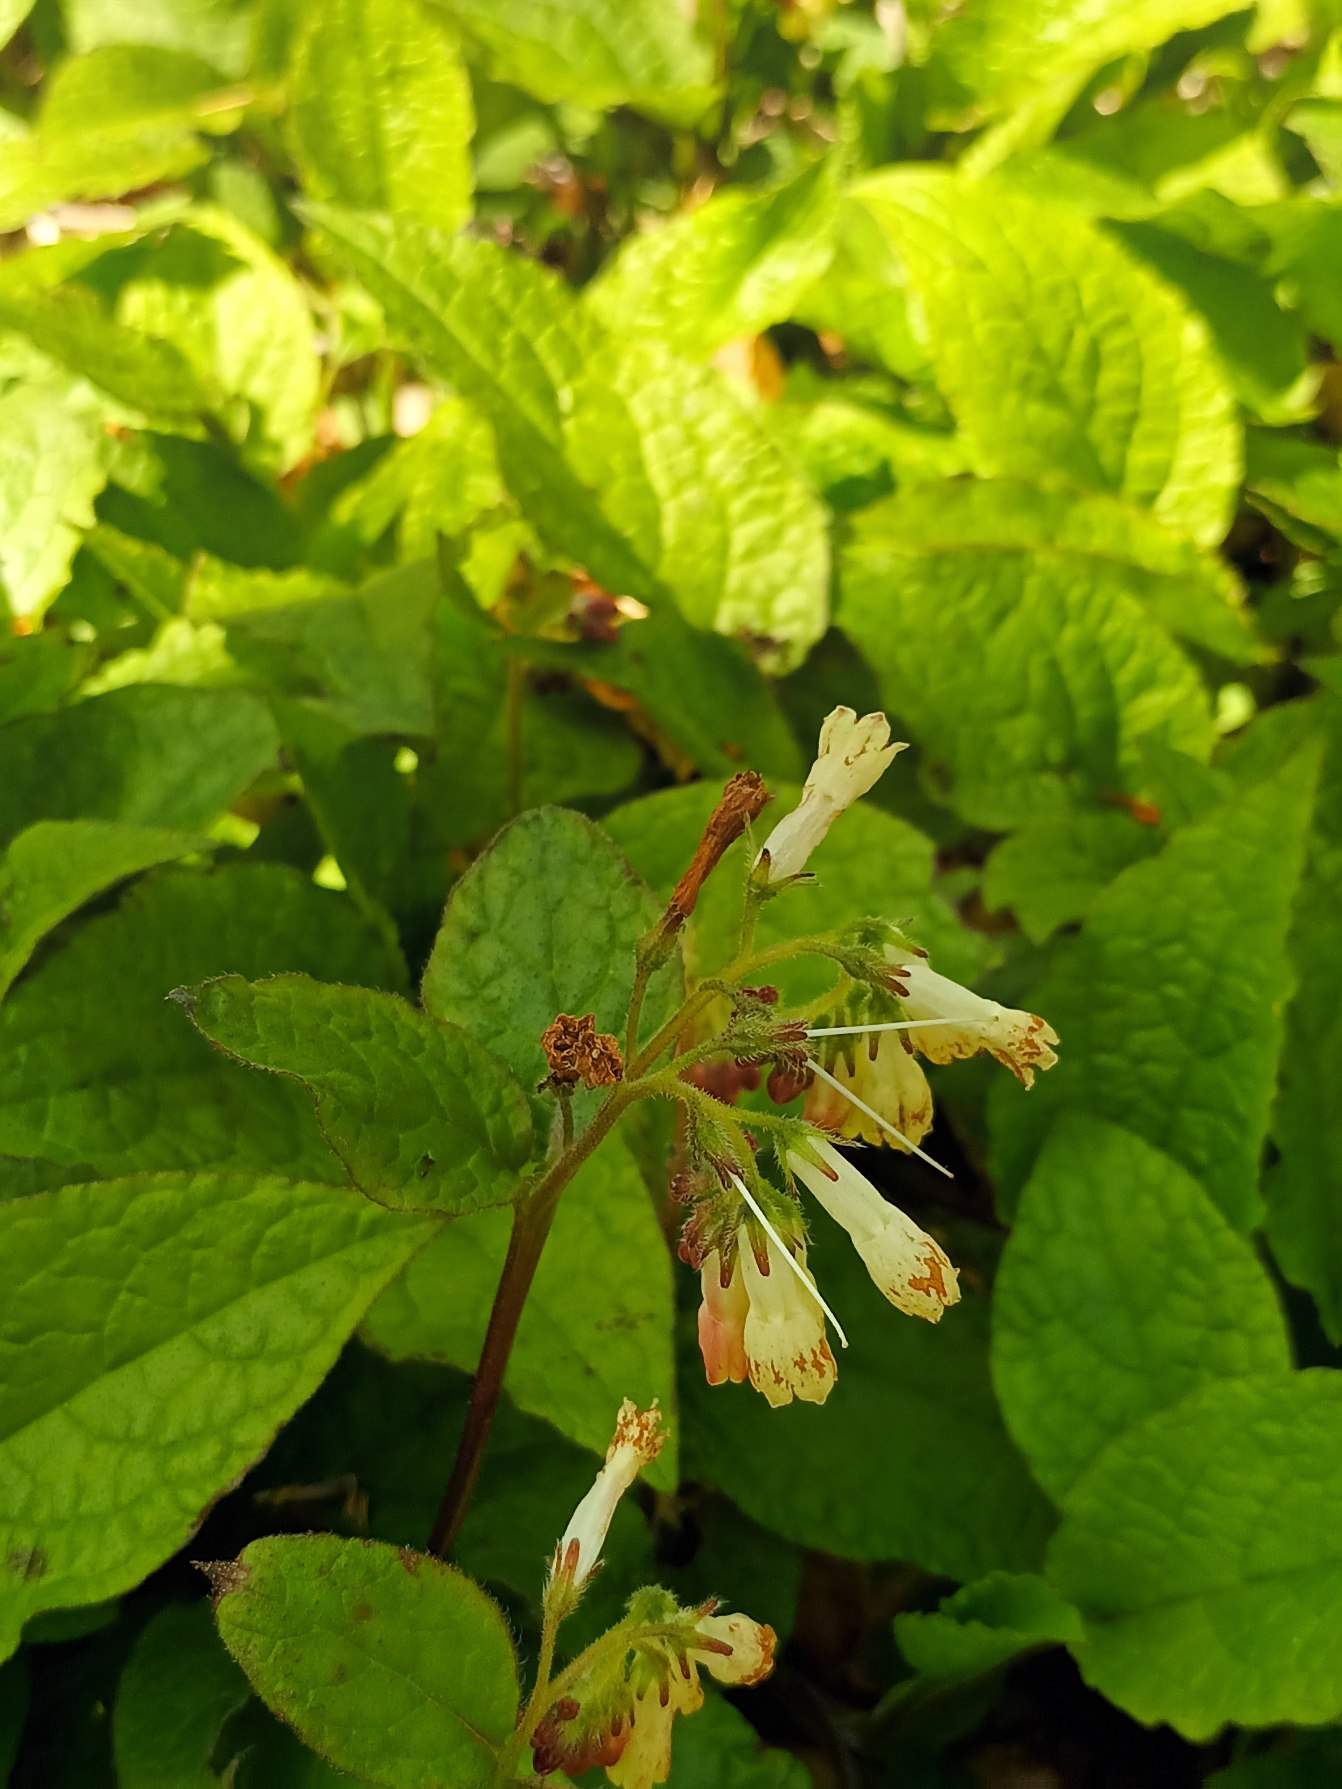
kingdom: Plantae
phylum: Tracheophyta
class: Magnoliopsida
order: Boraginales
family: Boraginaceae
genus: Symphytum
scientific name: Symphytum tuberosum
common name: Knoldet kulsukker
